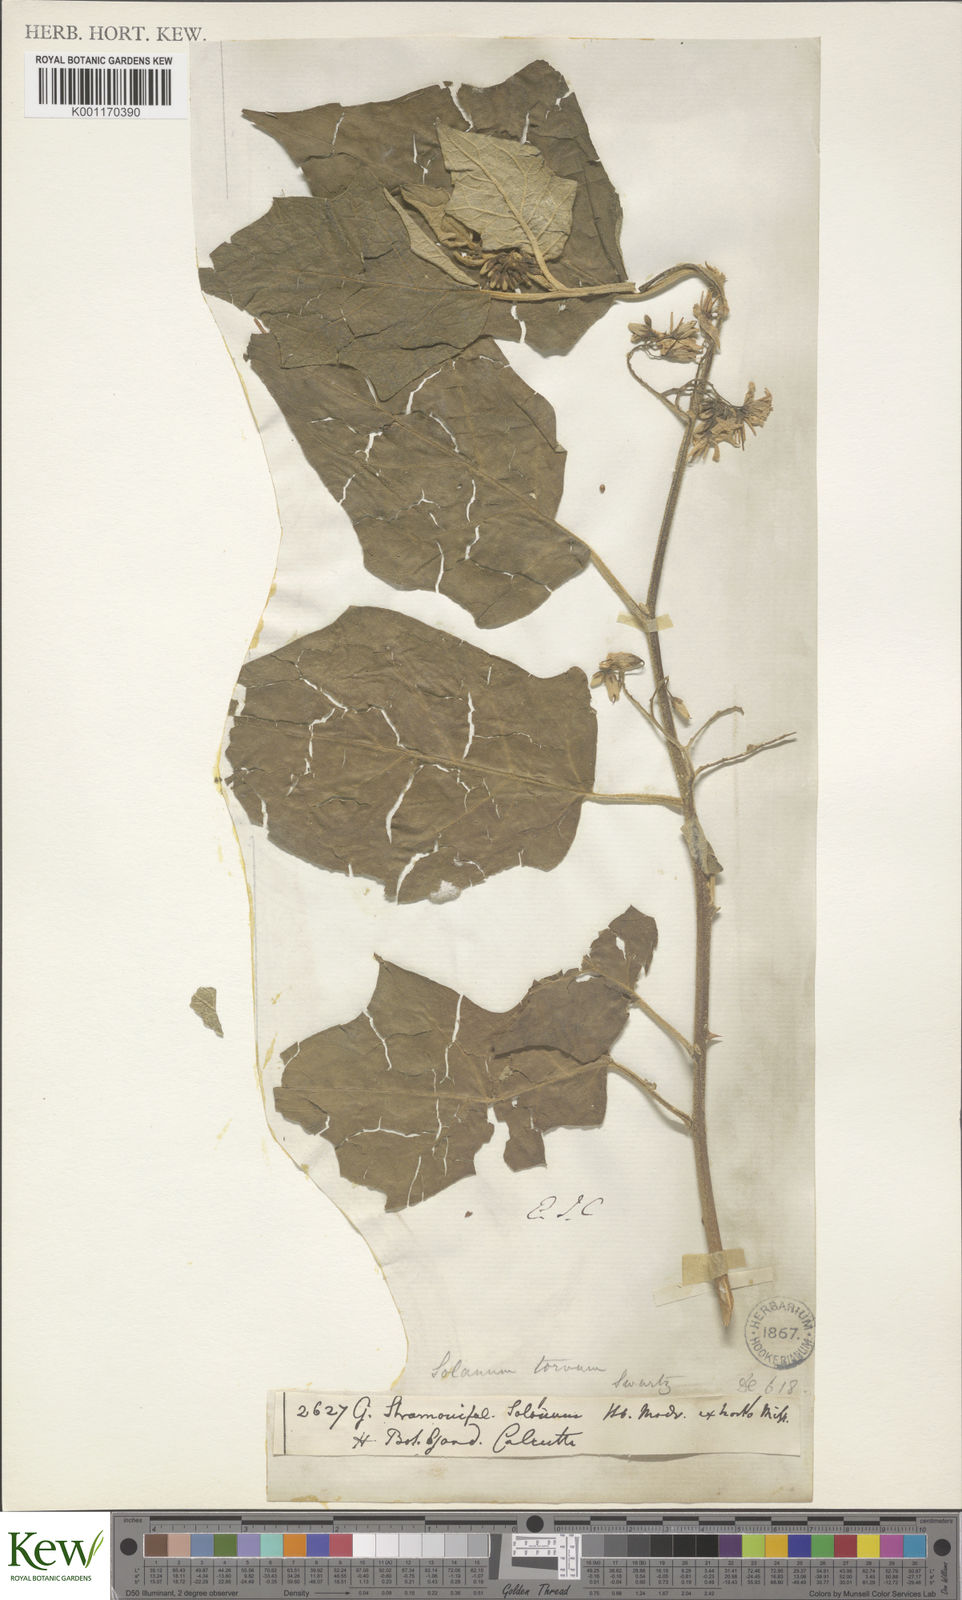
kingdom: Plantae
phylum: Tracheophyta
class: Magnoliopsida
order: Solanales
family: Solanaceae
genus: Solanum
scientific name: Solanum torvum
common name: Turkey berry
